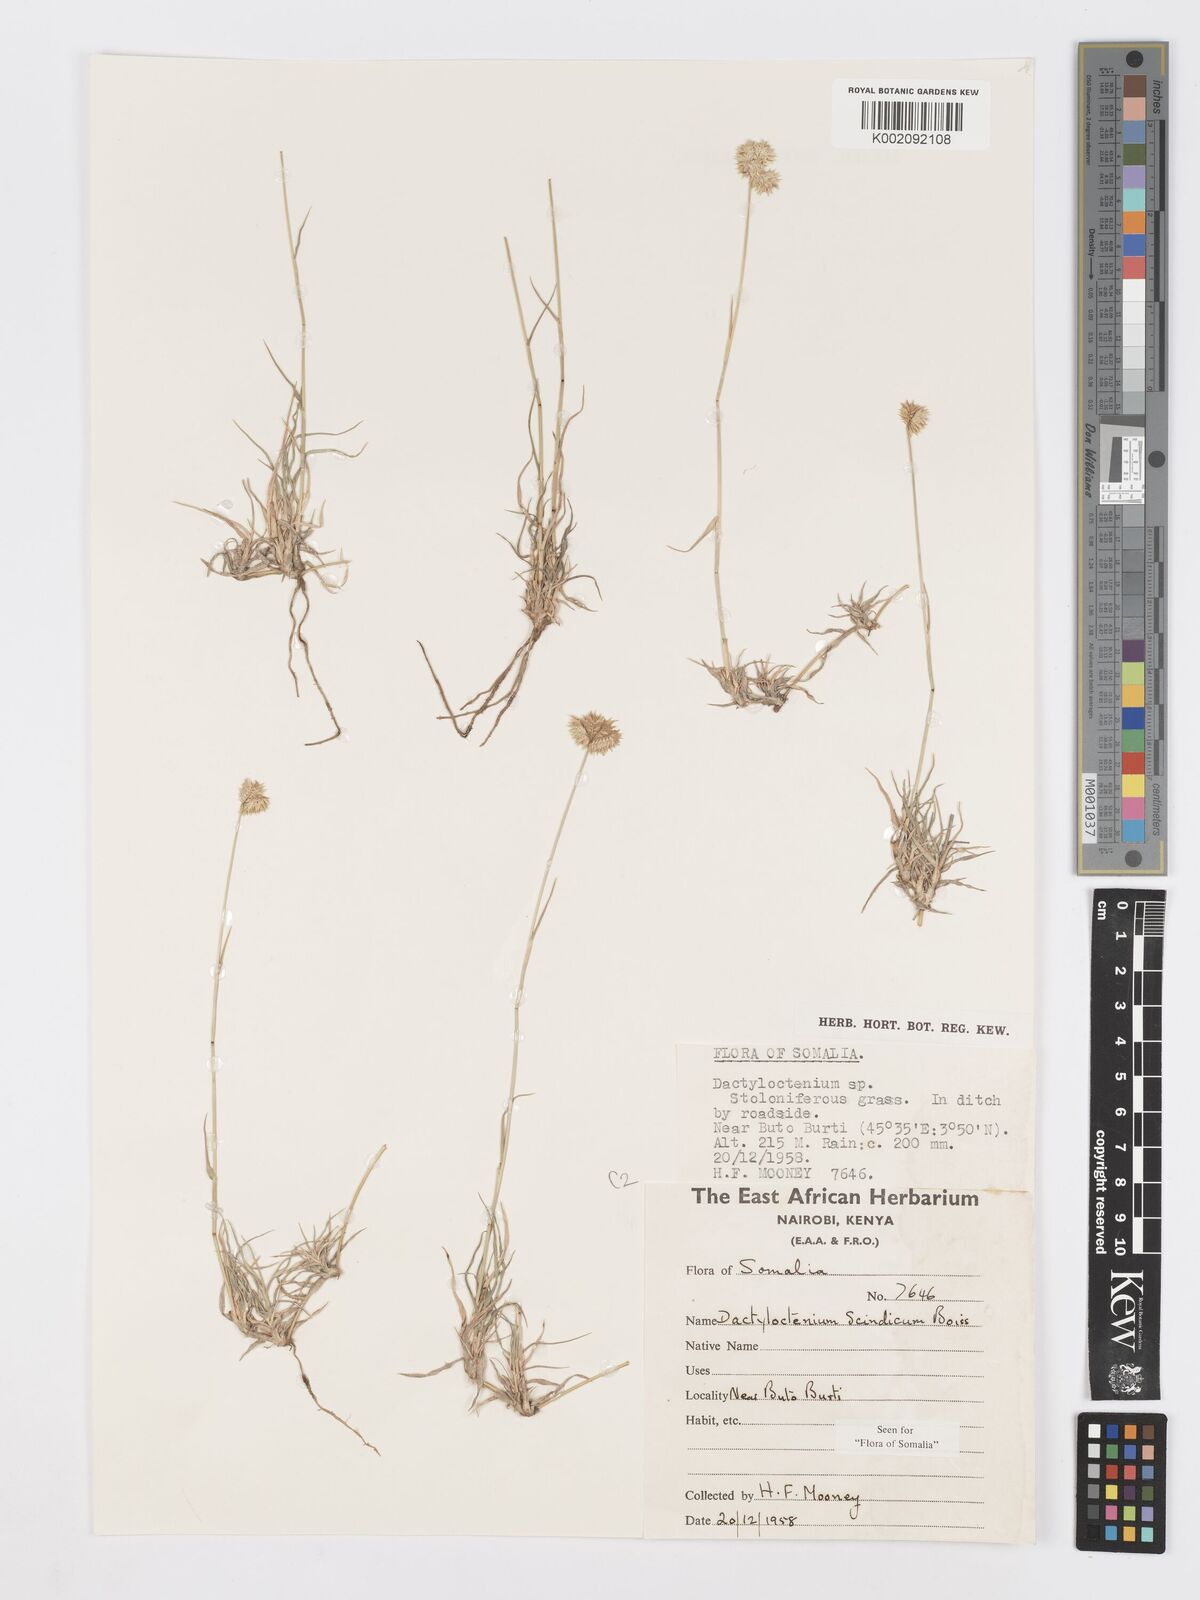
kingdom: Plantae
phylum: Tracheophyta
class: Liliopsida
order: Poales
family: Poaceae
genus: Dactyloctenium
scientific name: Dactyloctenium scindicum
